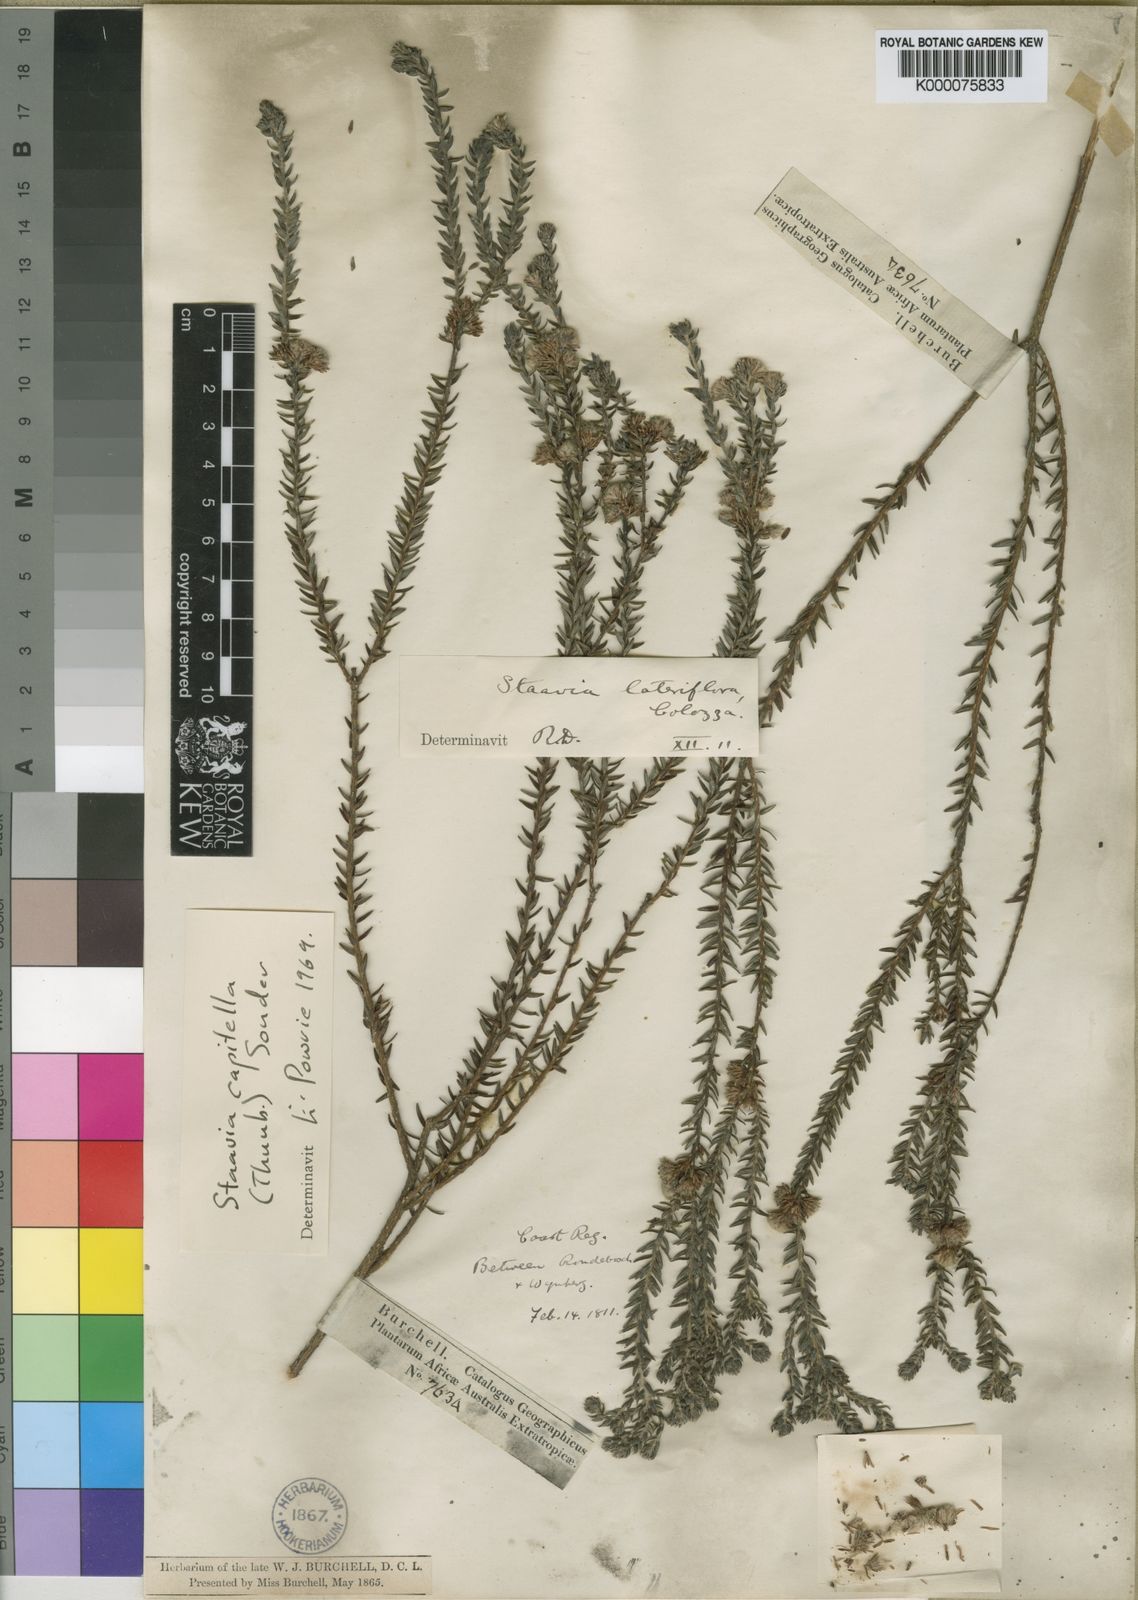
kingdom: Plantae
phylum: Tracheophyta
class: Magnoliopsida
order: Bruniales
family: Bruniaceae
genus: Staavia
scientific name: Staavia capitella
